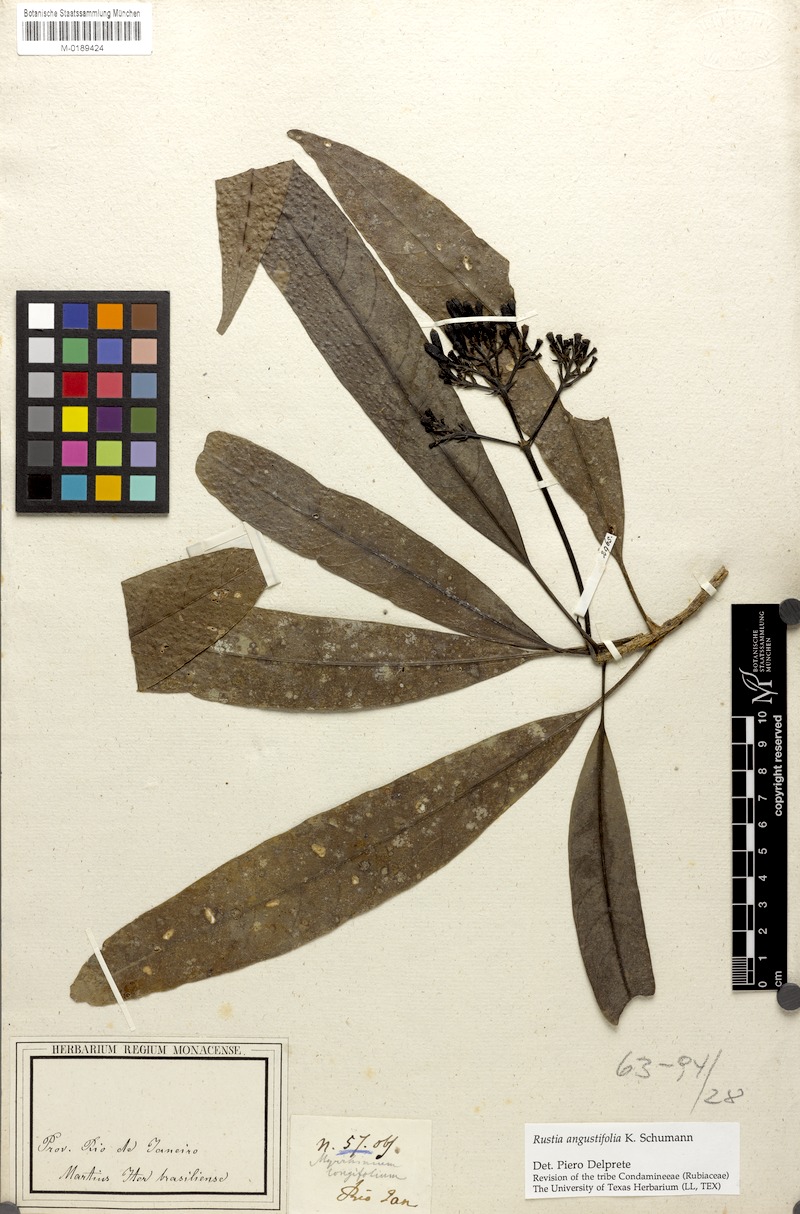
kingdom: Plantae
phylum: Tracheophyta
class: Magnoliopsida
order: Gentianales
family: Rubiaceae
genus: Rustia
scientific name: Rustia angustifolia
